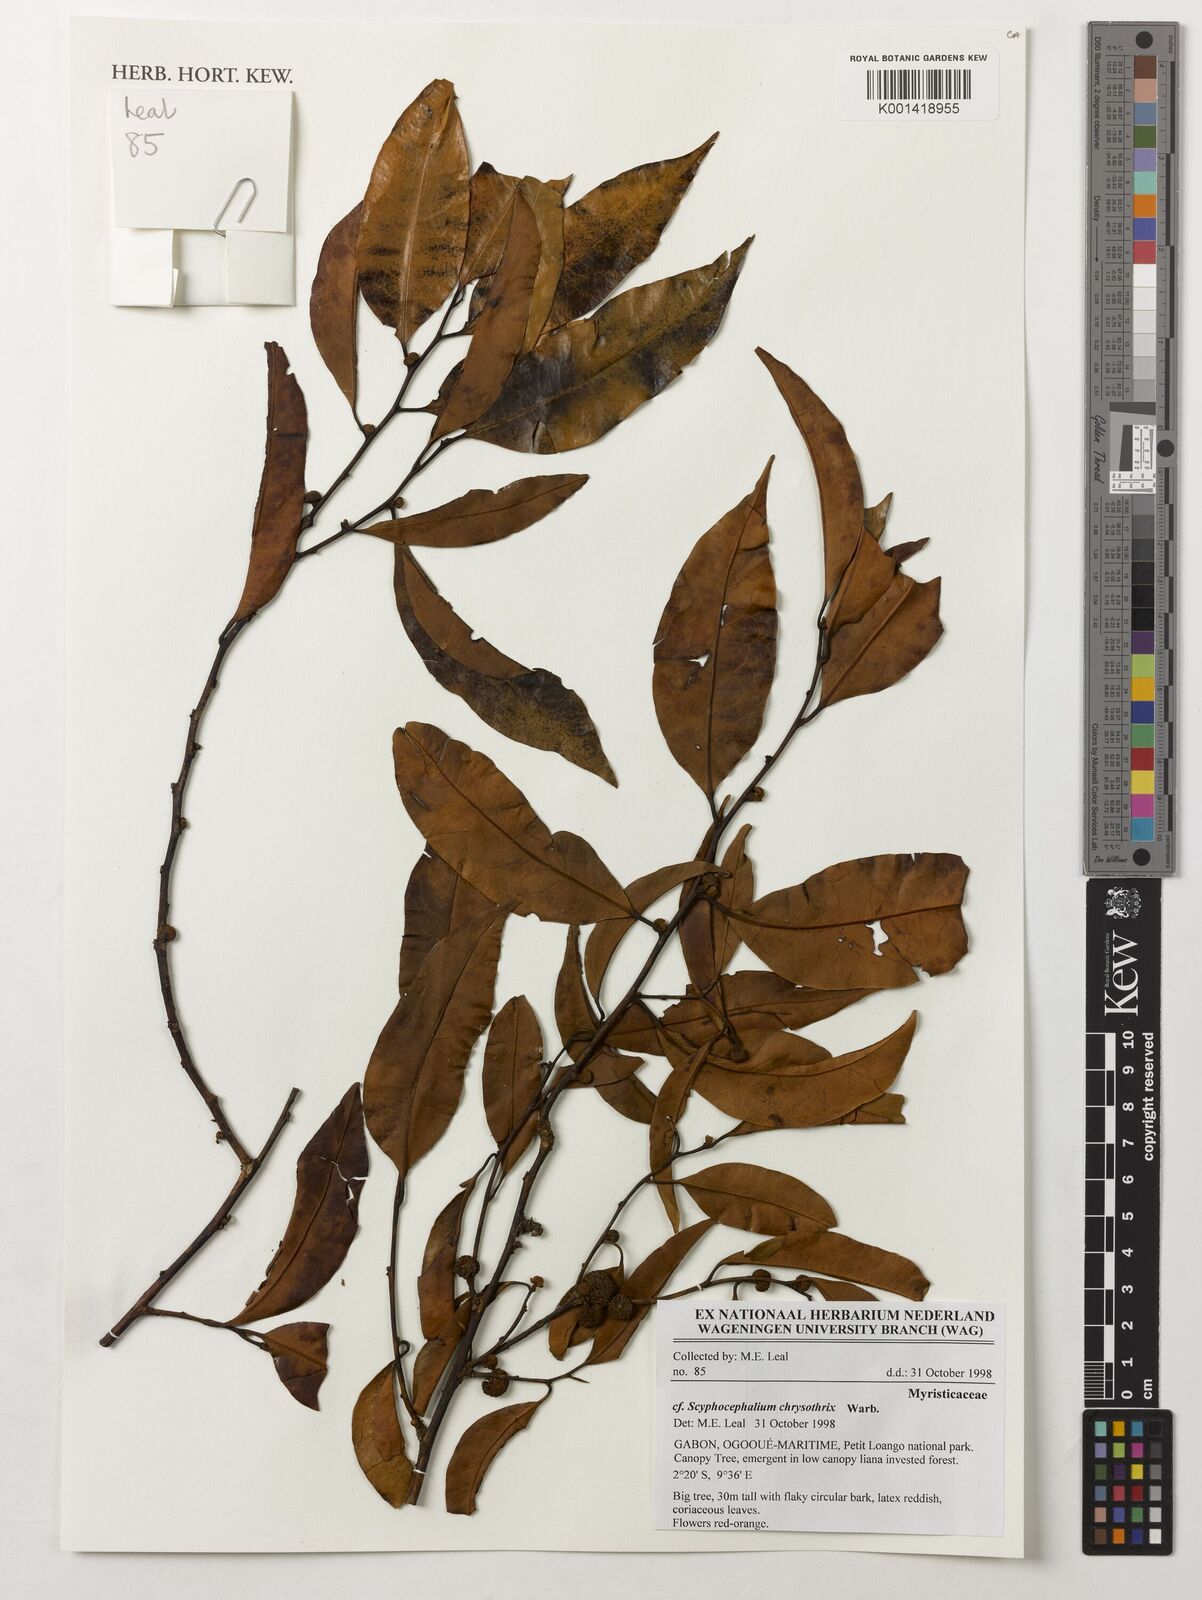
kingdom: Plantae
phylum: Tracheophyta
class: Magnoliopsida
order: Magnoliales
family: Myristicaceae
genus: Scyphocephalium
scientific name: Scyphocephalium chrysothrix
